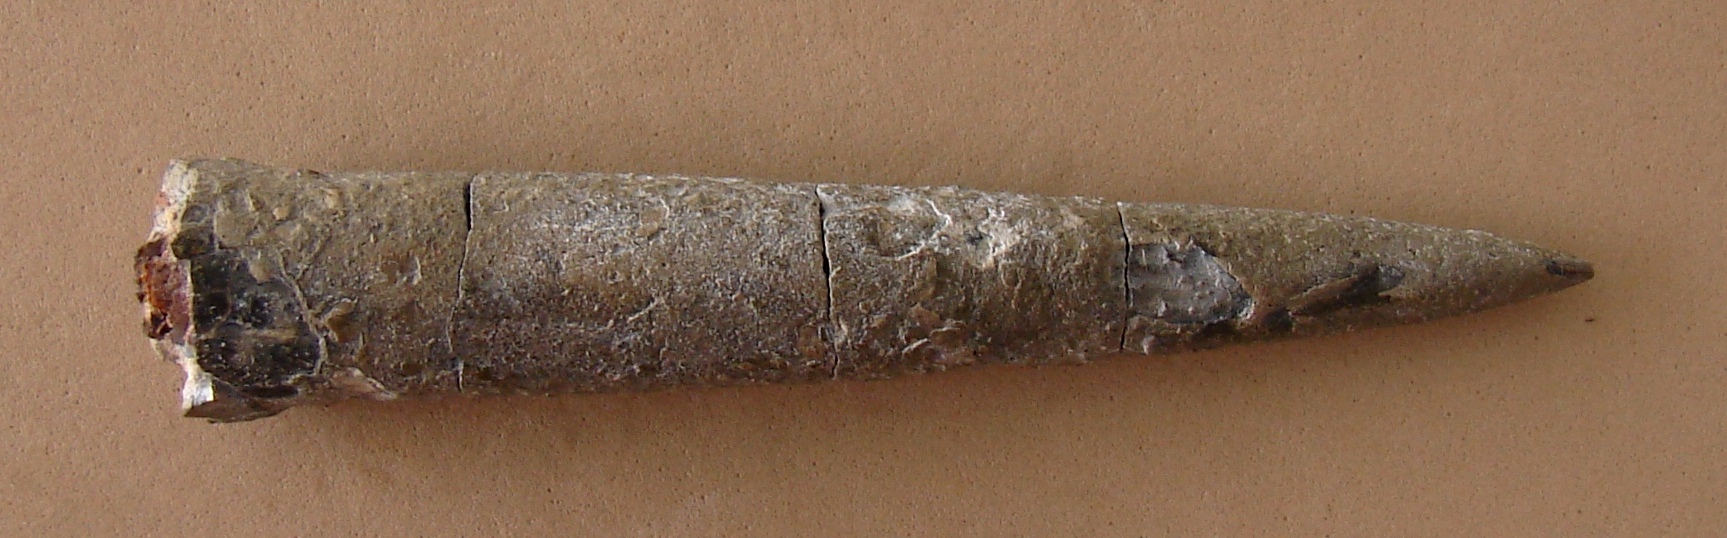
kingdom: Animalia
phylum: Mollusca
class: Cephalopoda
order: Belemnitida
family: Megateuthididae
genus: Acrocoelites
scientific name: Acrocoelites oxyconus
